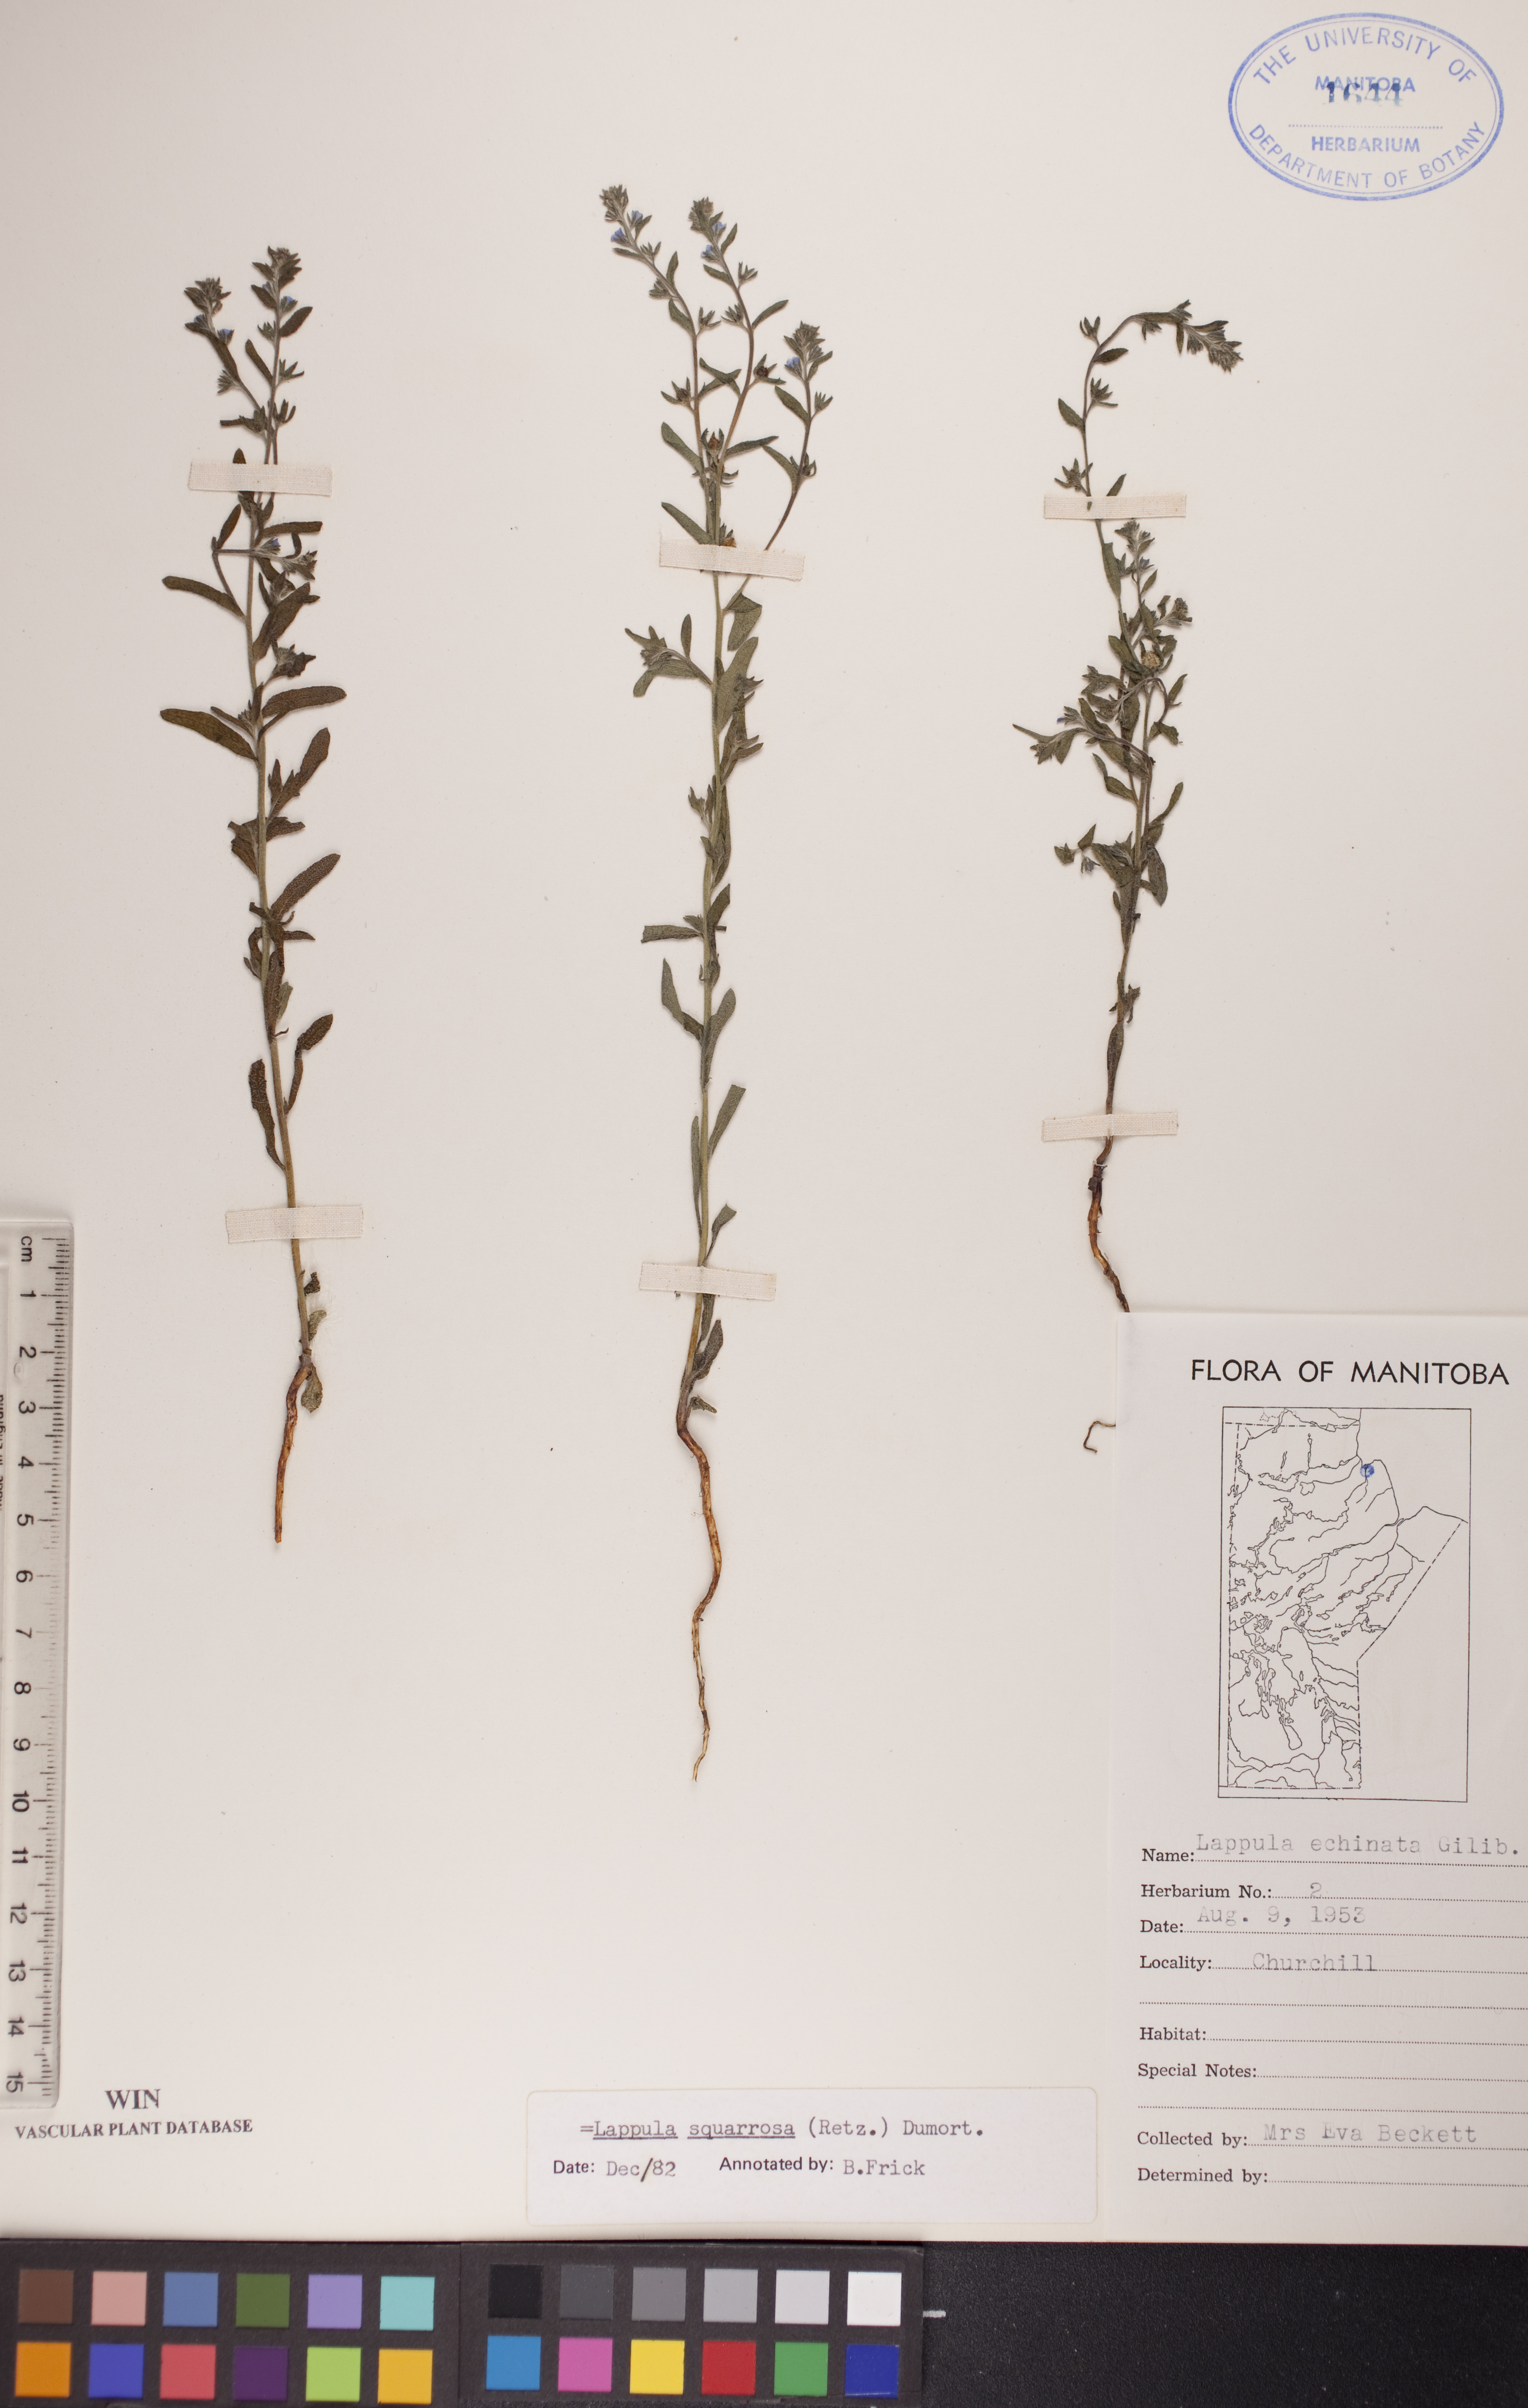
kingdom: Plantae
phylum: Tracheophyta
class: Magnoliopsida
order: Boraginales
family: Boraginaceae
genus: Lappula
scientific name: Lappula squarrosa
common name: European stickseed
